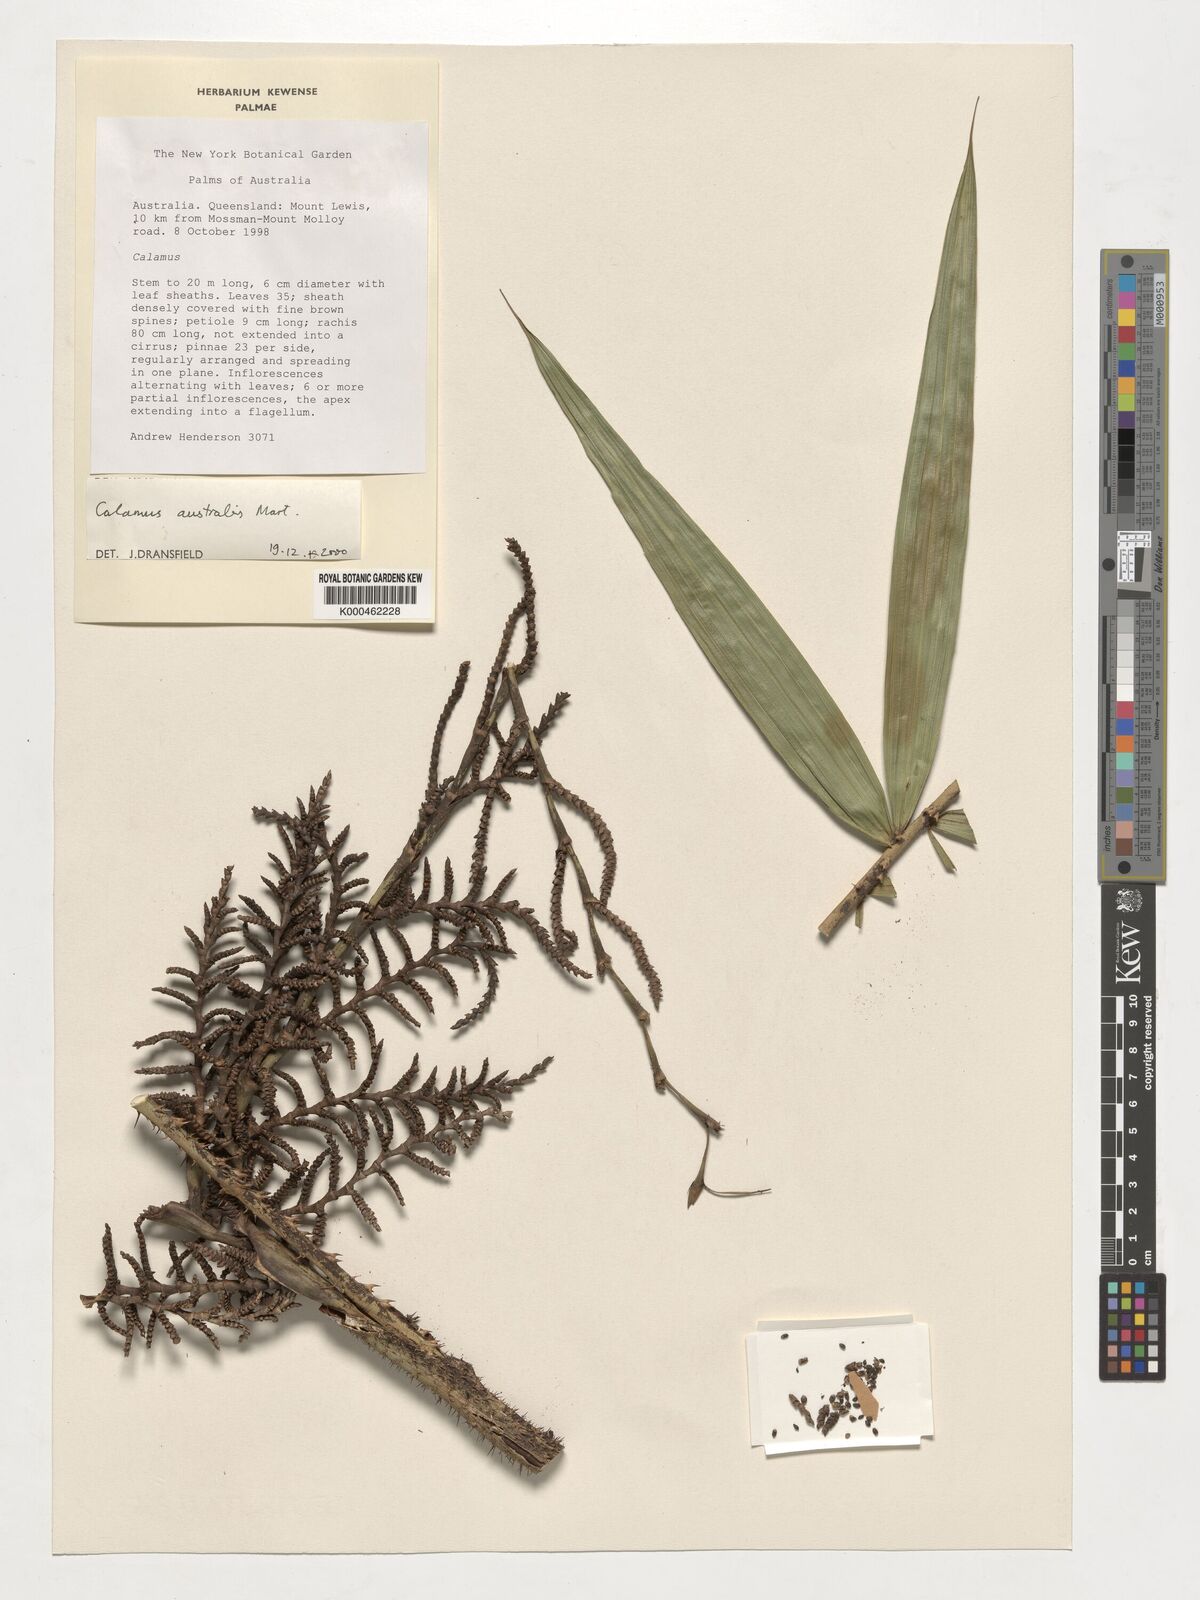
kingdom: Plantae
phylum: Tracheophyta
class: Liliopsida
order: Arecales
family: Arecaceae
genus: Calamus
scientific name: Calamus australis
